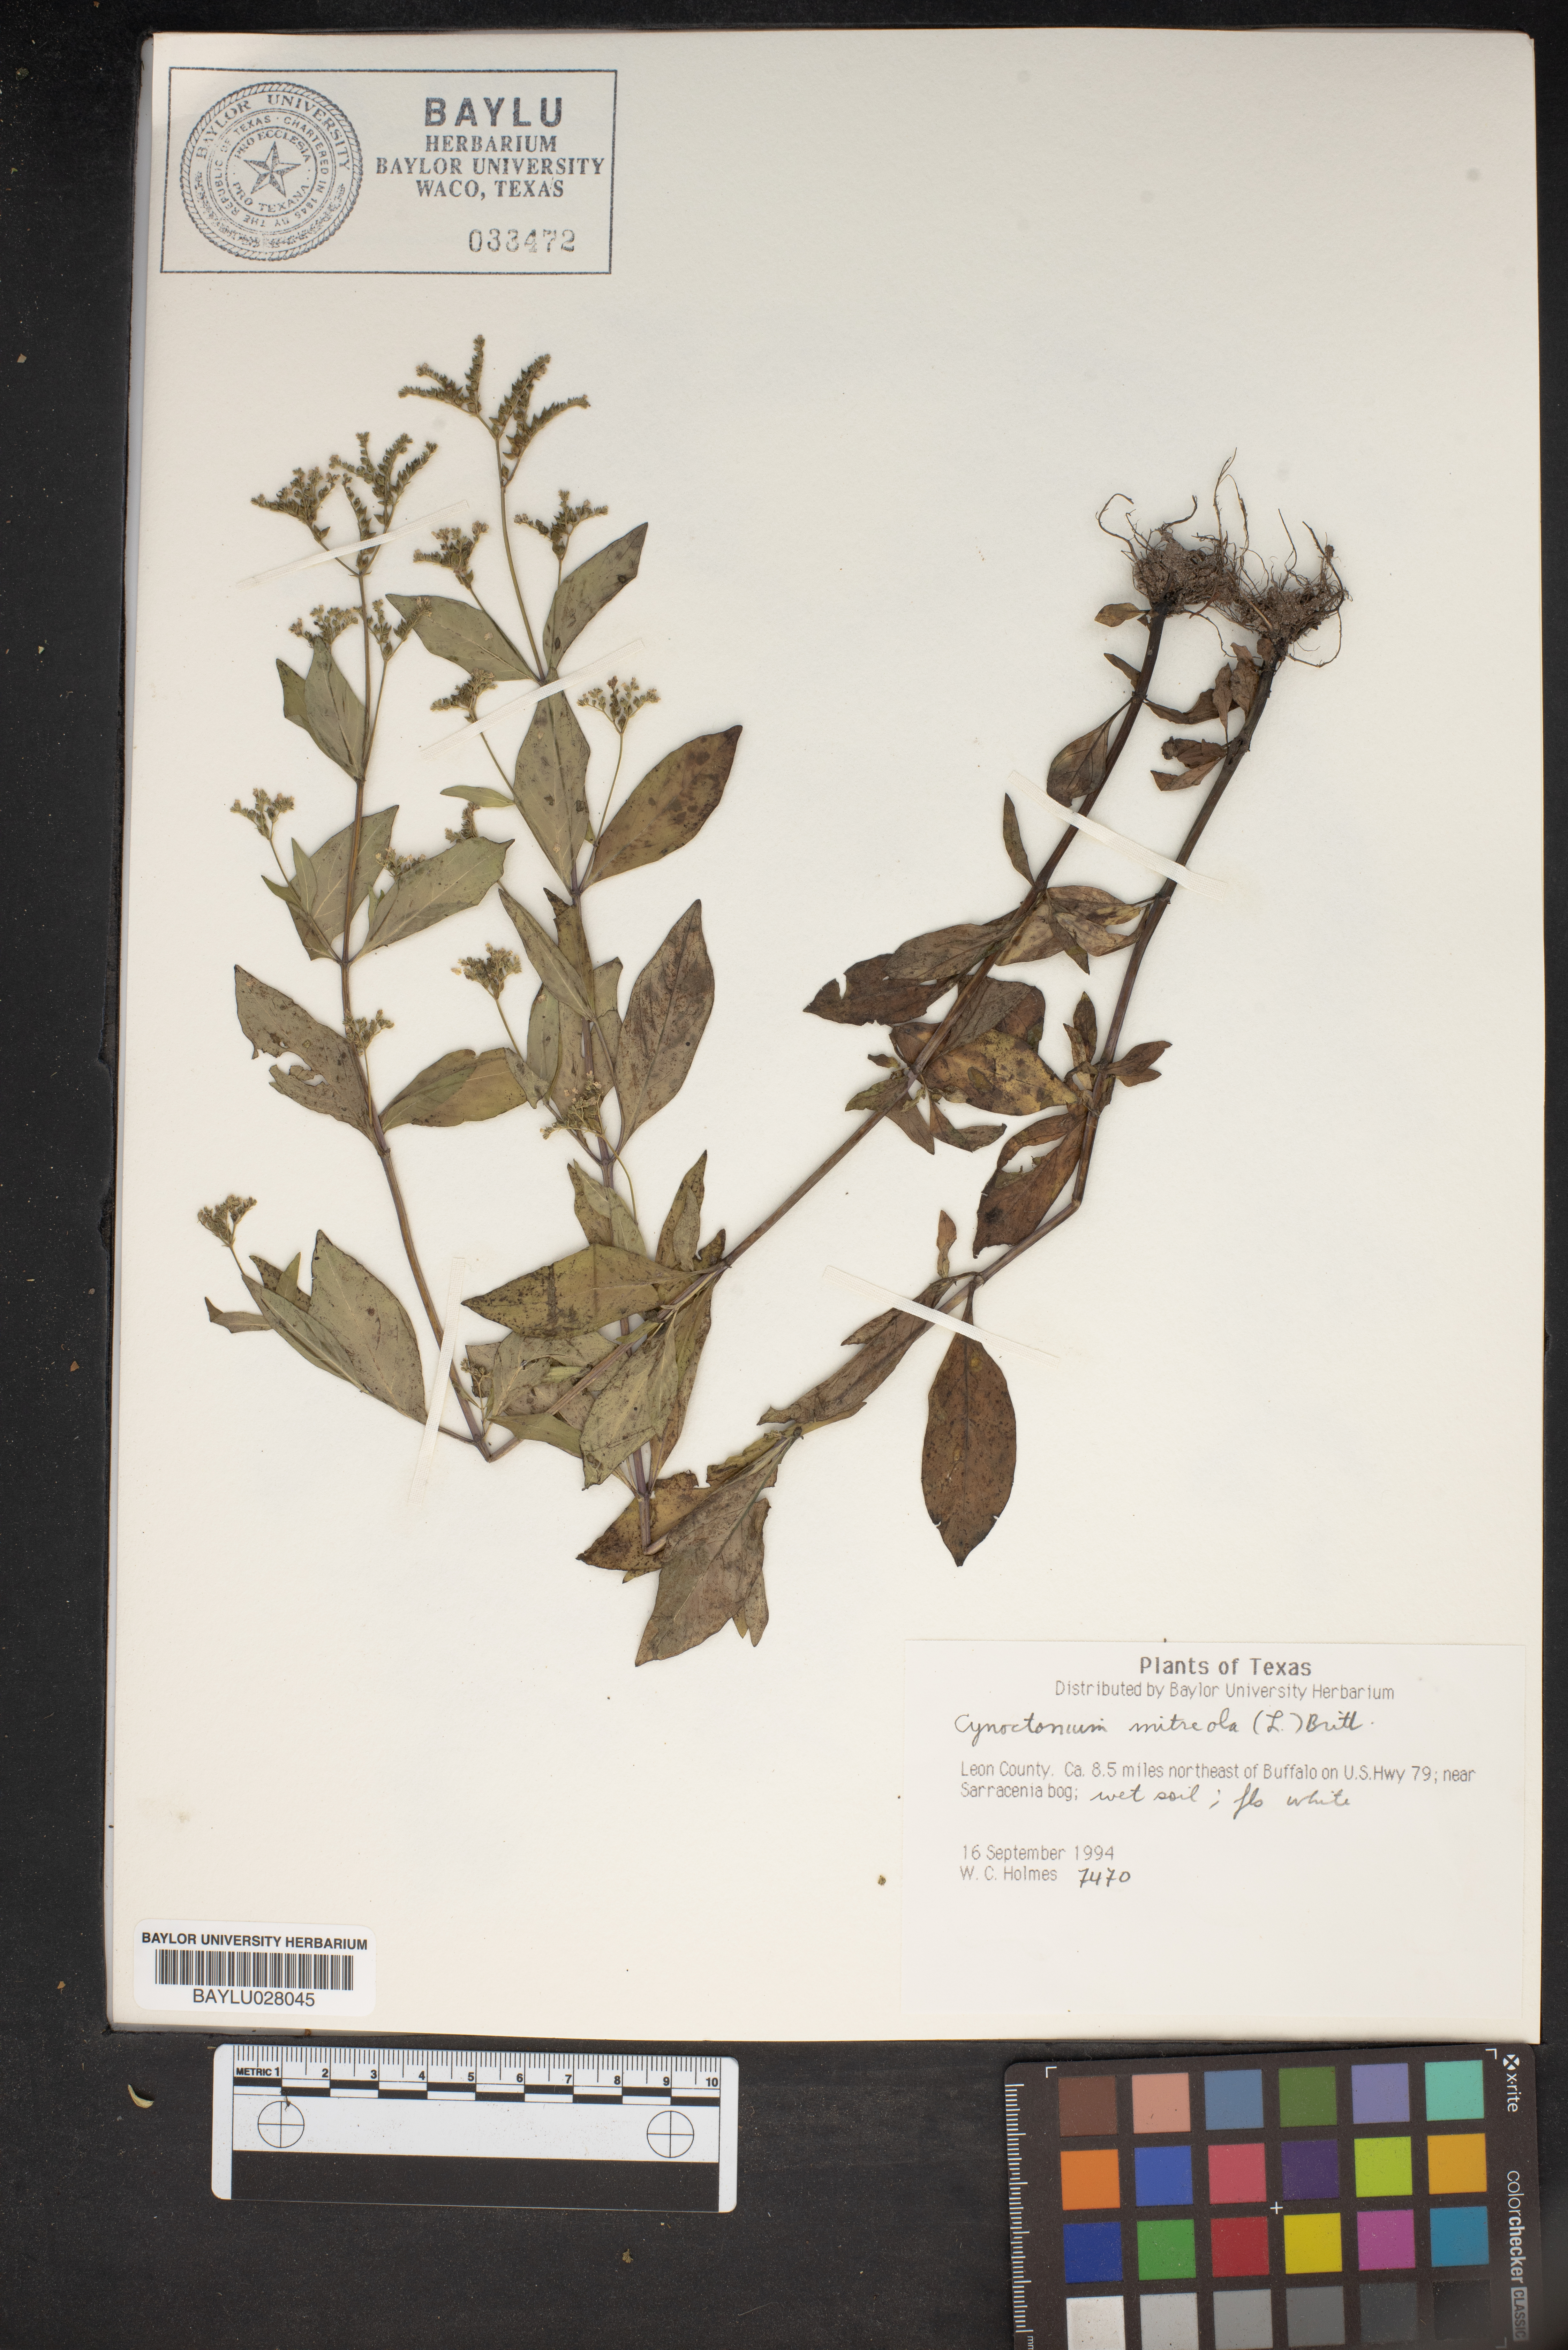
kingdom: Plantae
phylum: Tracheophyta
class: Magnoliopsida
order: Gentianales
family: Loganiaceae
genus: Mitreola
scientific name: Mitreola petiolata
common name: Lax hornpod
